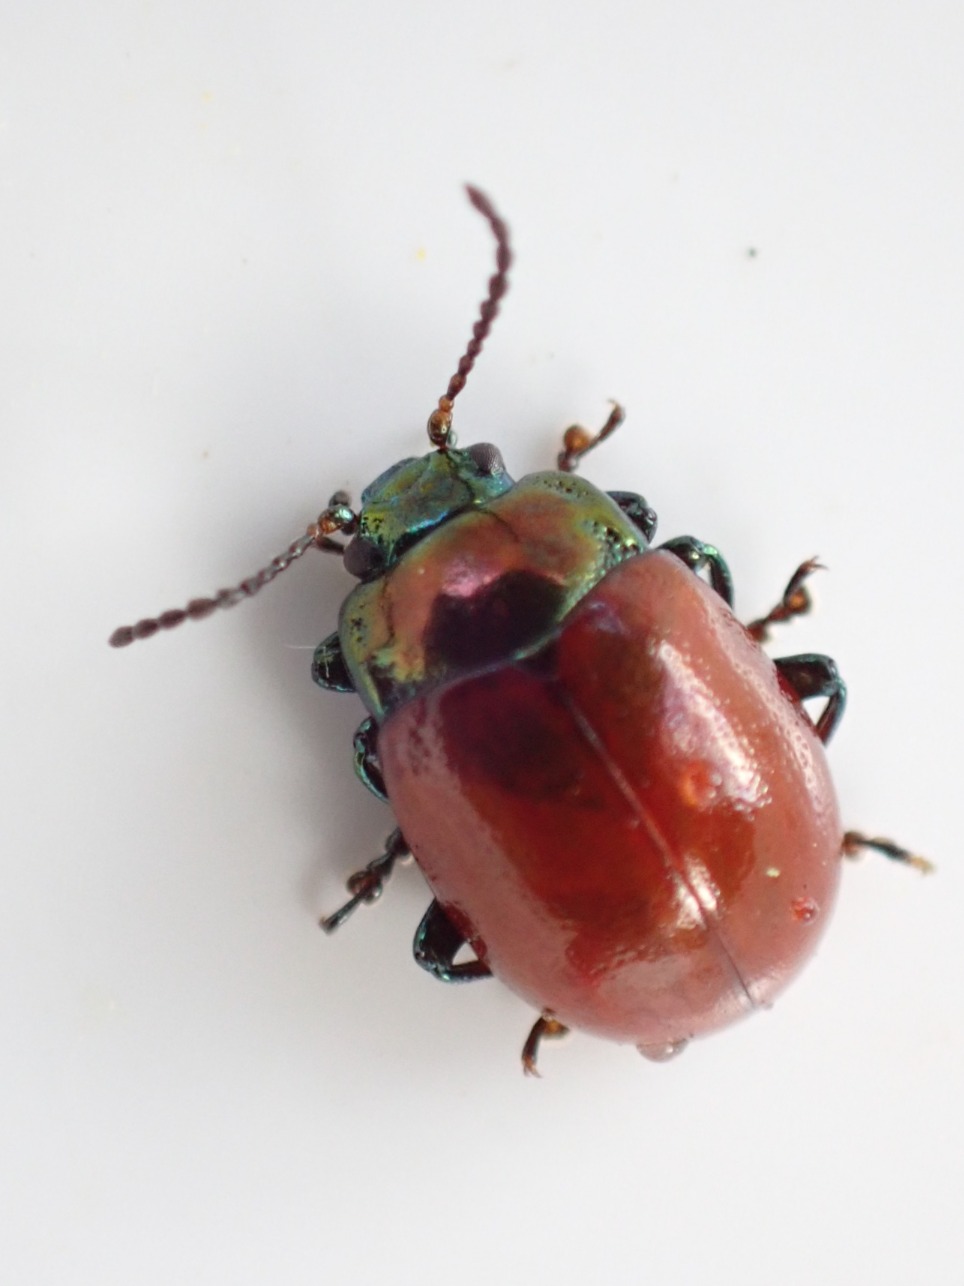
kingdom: Animalia
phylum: Arthropoda
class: Insecta
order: Coleoptera
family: Chrysomelidae
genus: Chrysomela
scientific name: Chrysomela polita
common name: Forskelligfarvet guldbille
